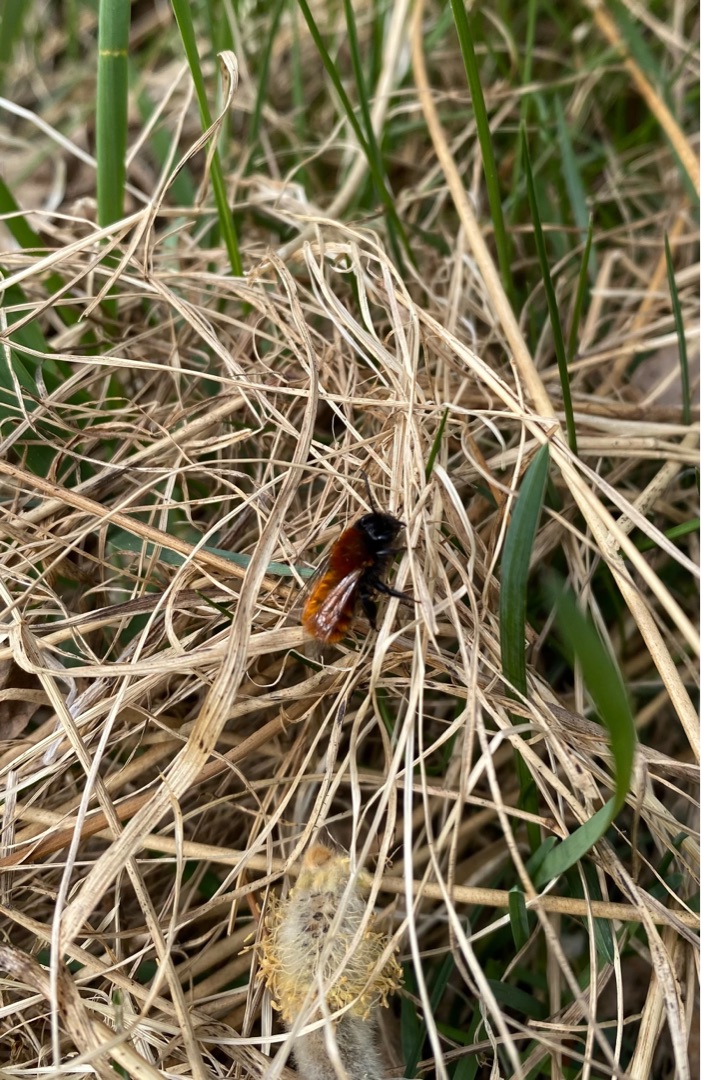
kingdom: Animalia
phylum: Arthropoda
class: Insecta
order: Hymenoptera
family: Andrenidae
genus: Andrena
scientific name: Andrena fulva
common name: Rødpelset jordbi
